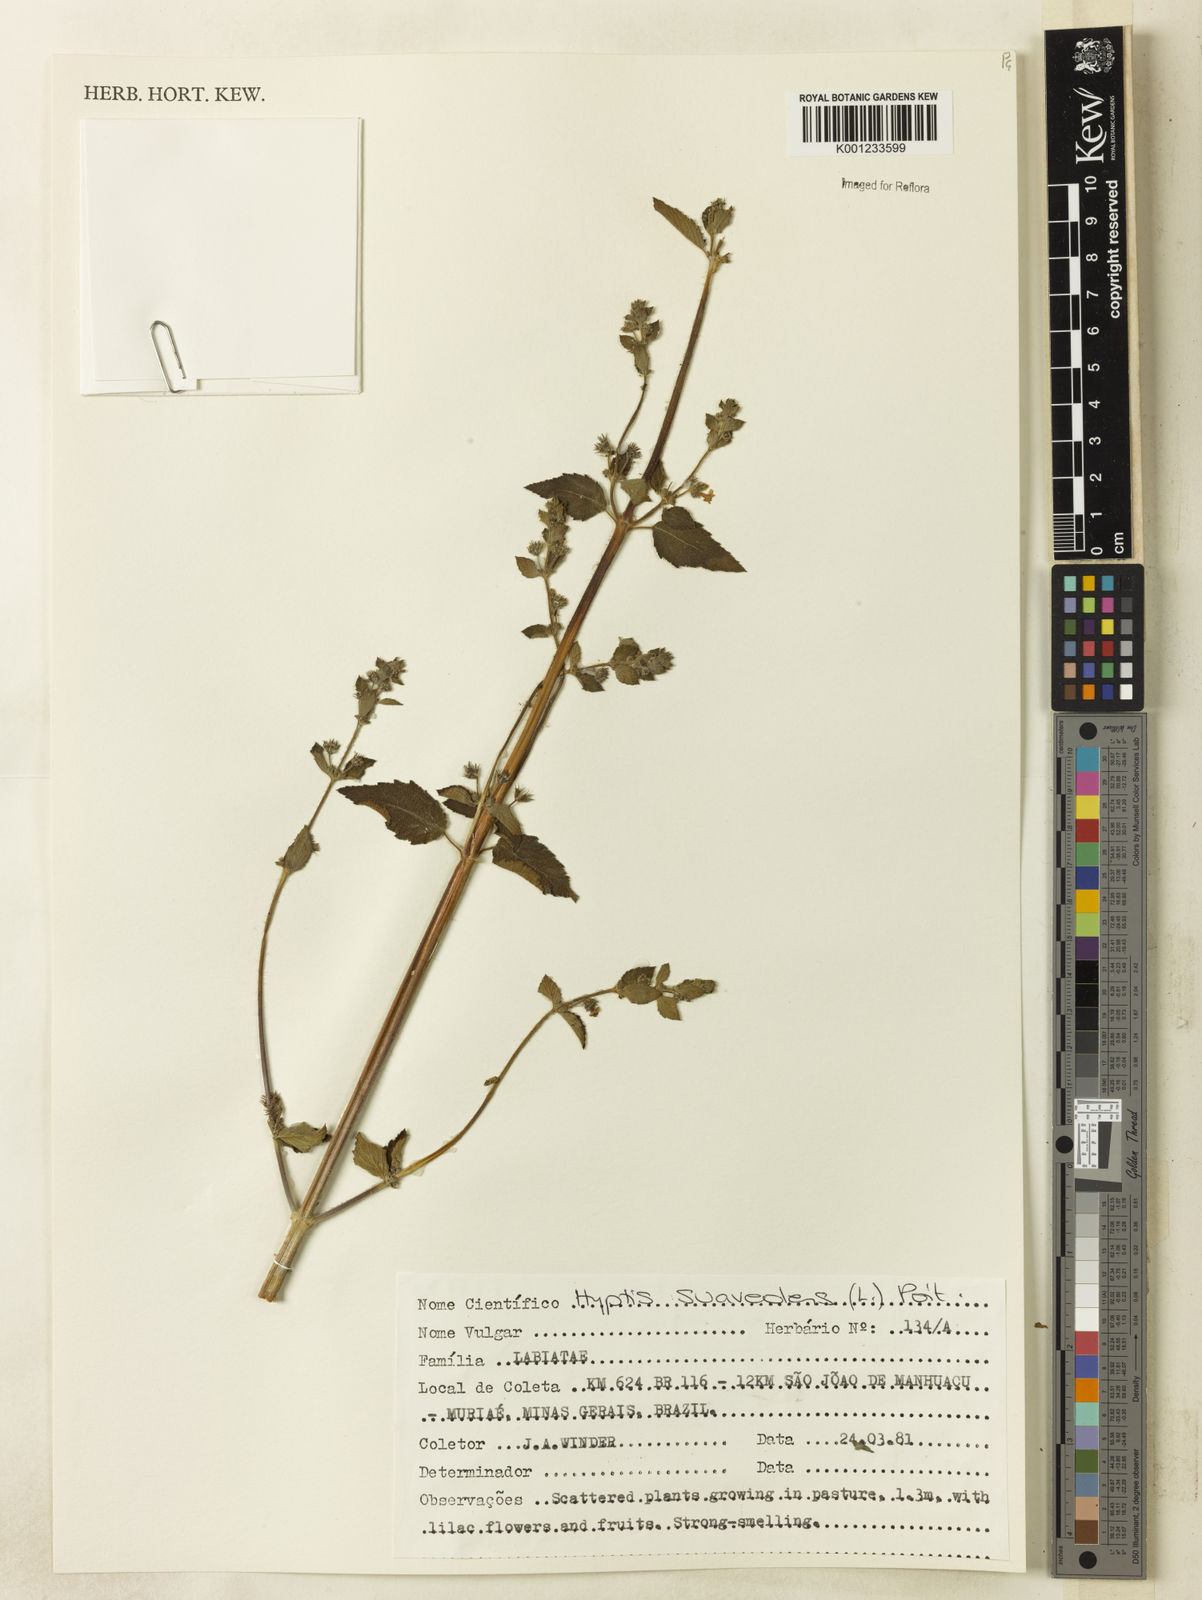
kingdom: Plantae
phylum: Tracheophyta
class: Magnoliopsida
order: Lamiales
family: Lamiaceae
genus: Mesosphaerum
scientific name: Mesosphaerum suaveolens
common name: Pignut
